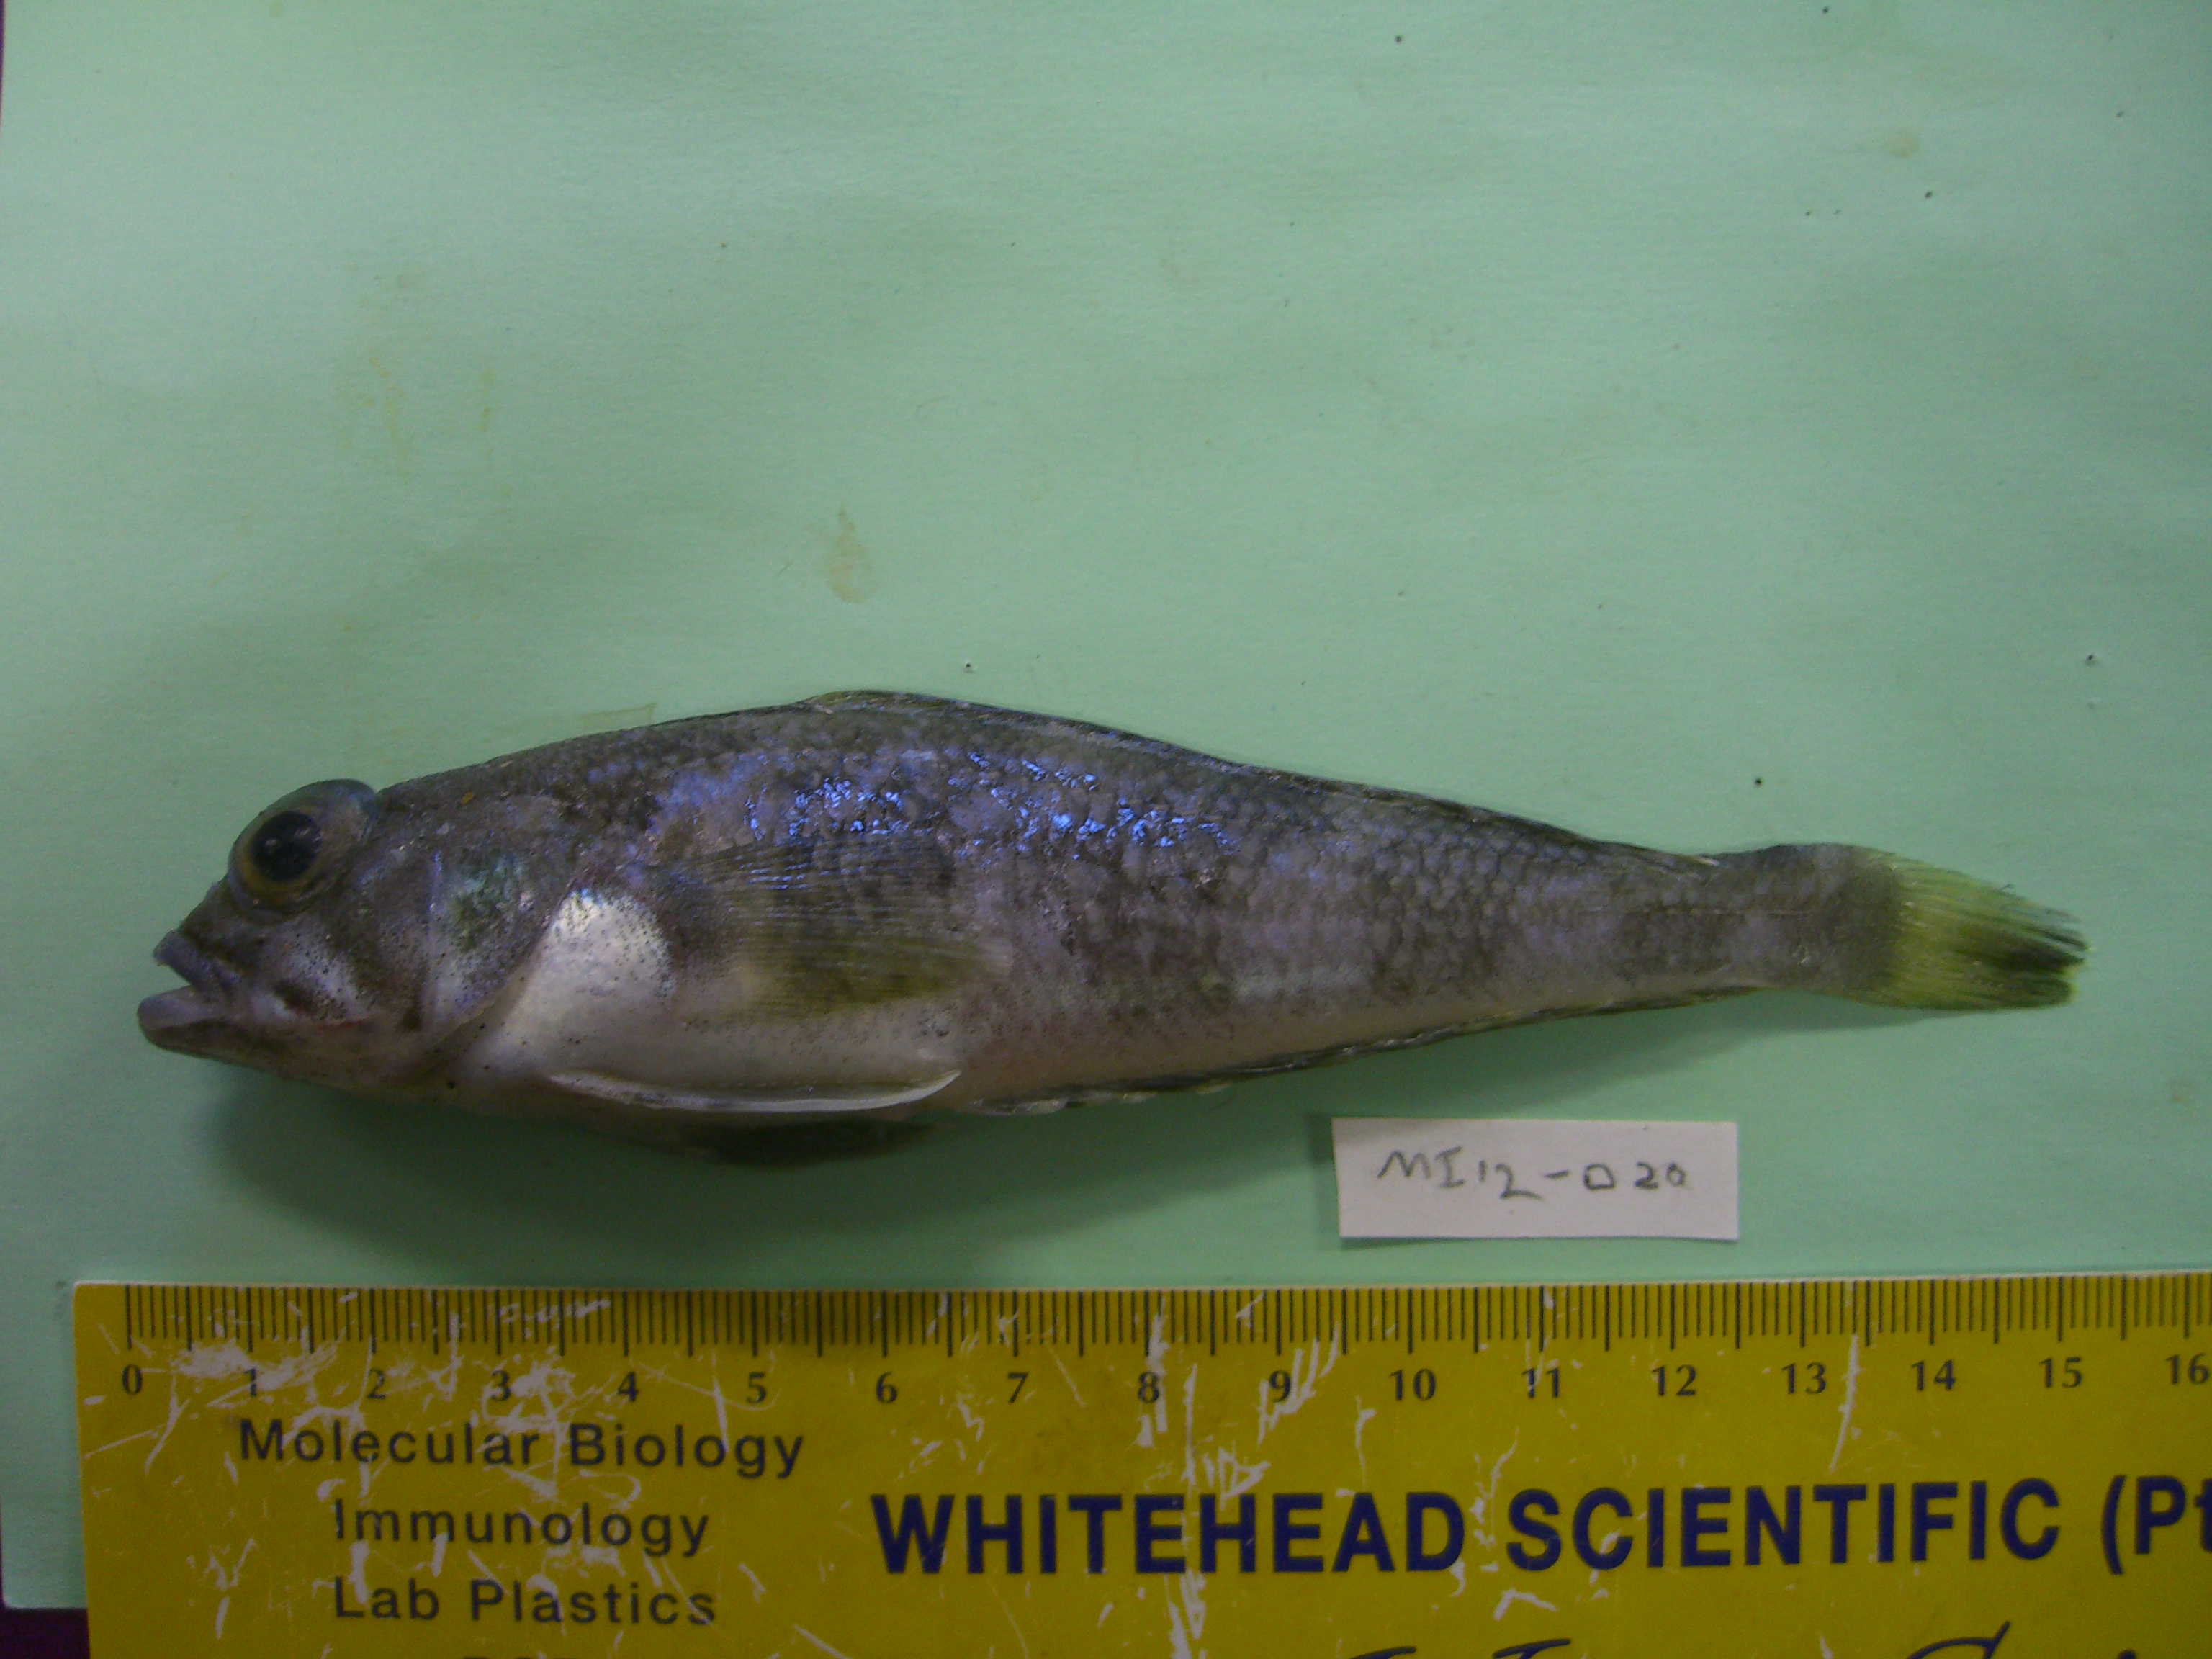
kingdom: Animalia
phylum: Chordata
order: Perciformes
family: Nototheniidae
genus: Lepidonotothen
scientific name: Lepidonotothen squamifrons
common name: Grey notothen
